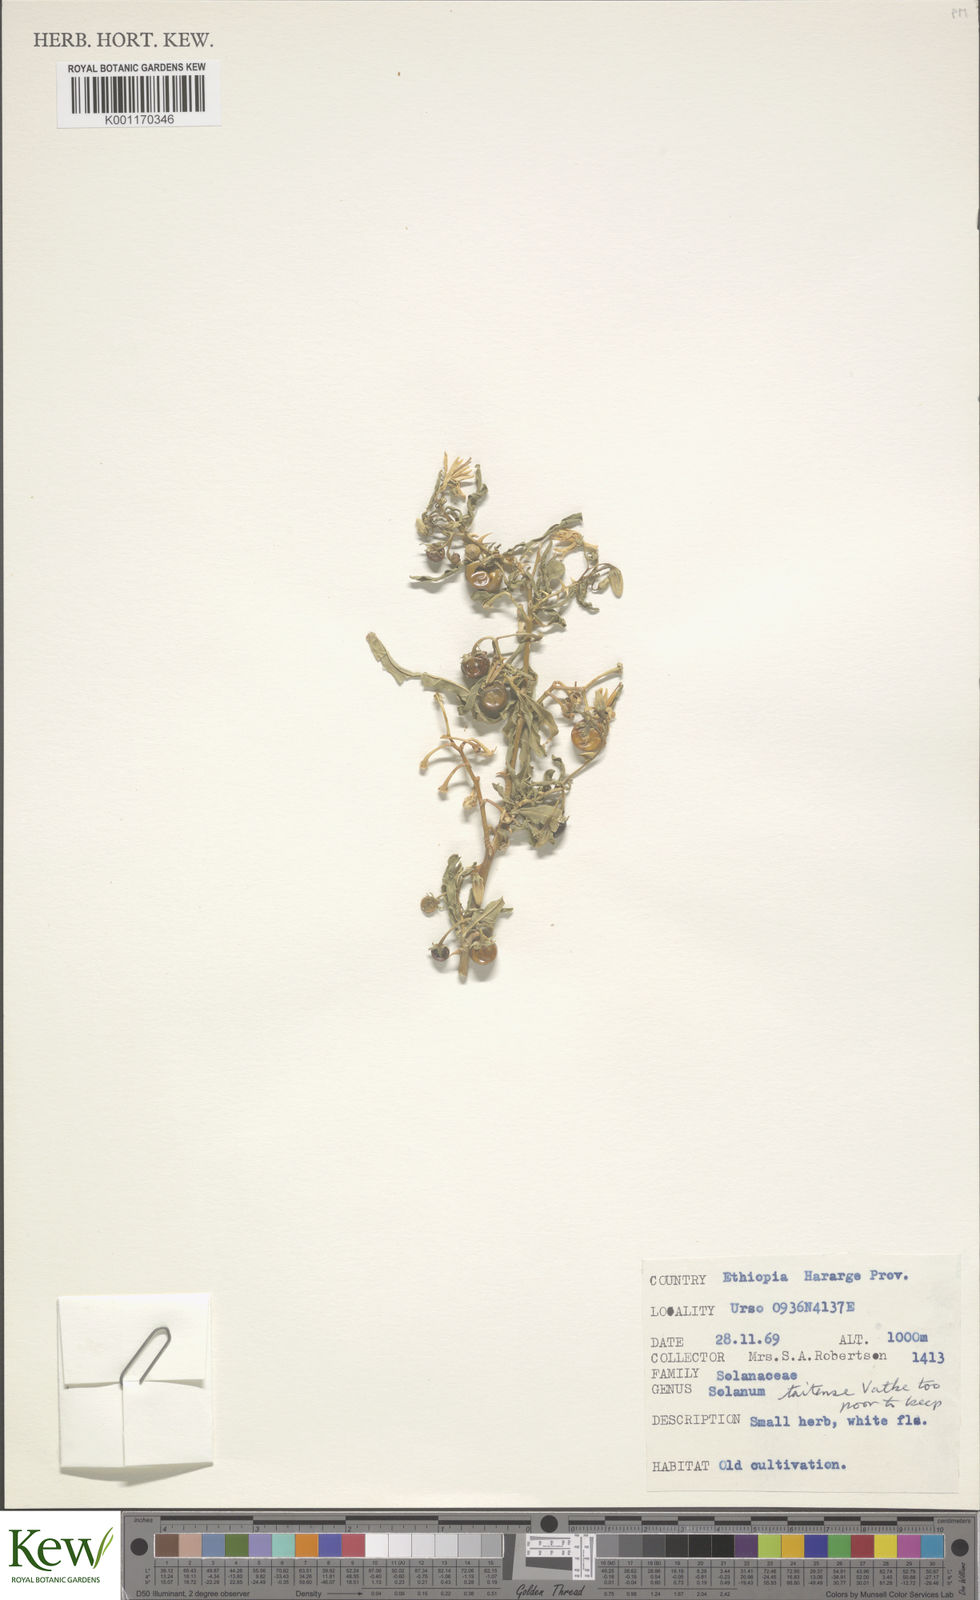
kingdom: Plantae
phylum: Tracheophyta
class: Magnoliopsida
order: Solanales
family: Solanaceae
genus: Solanum
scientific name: Solanum taitense
